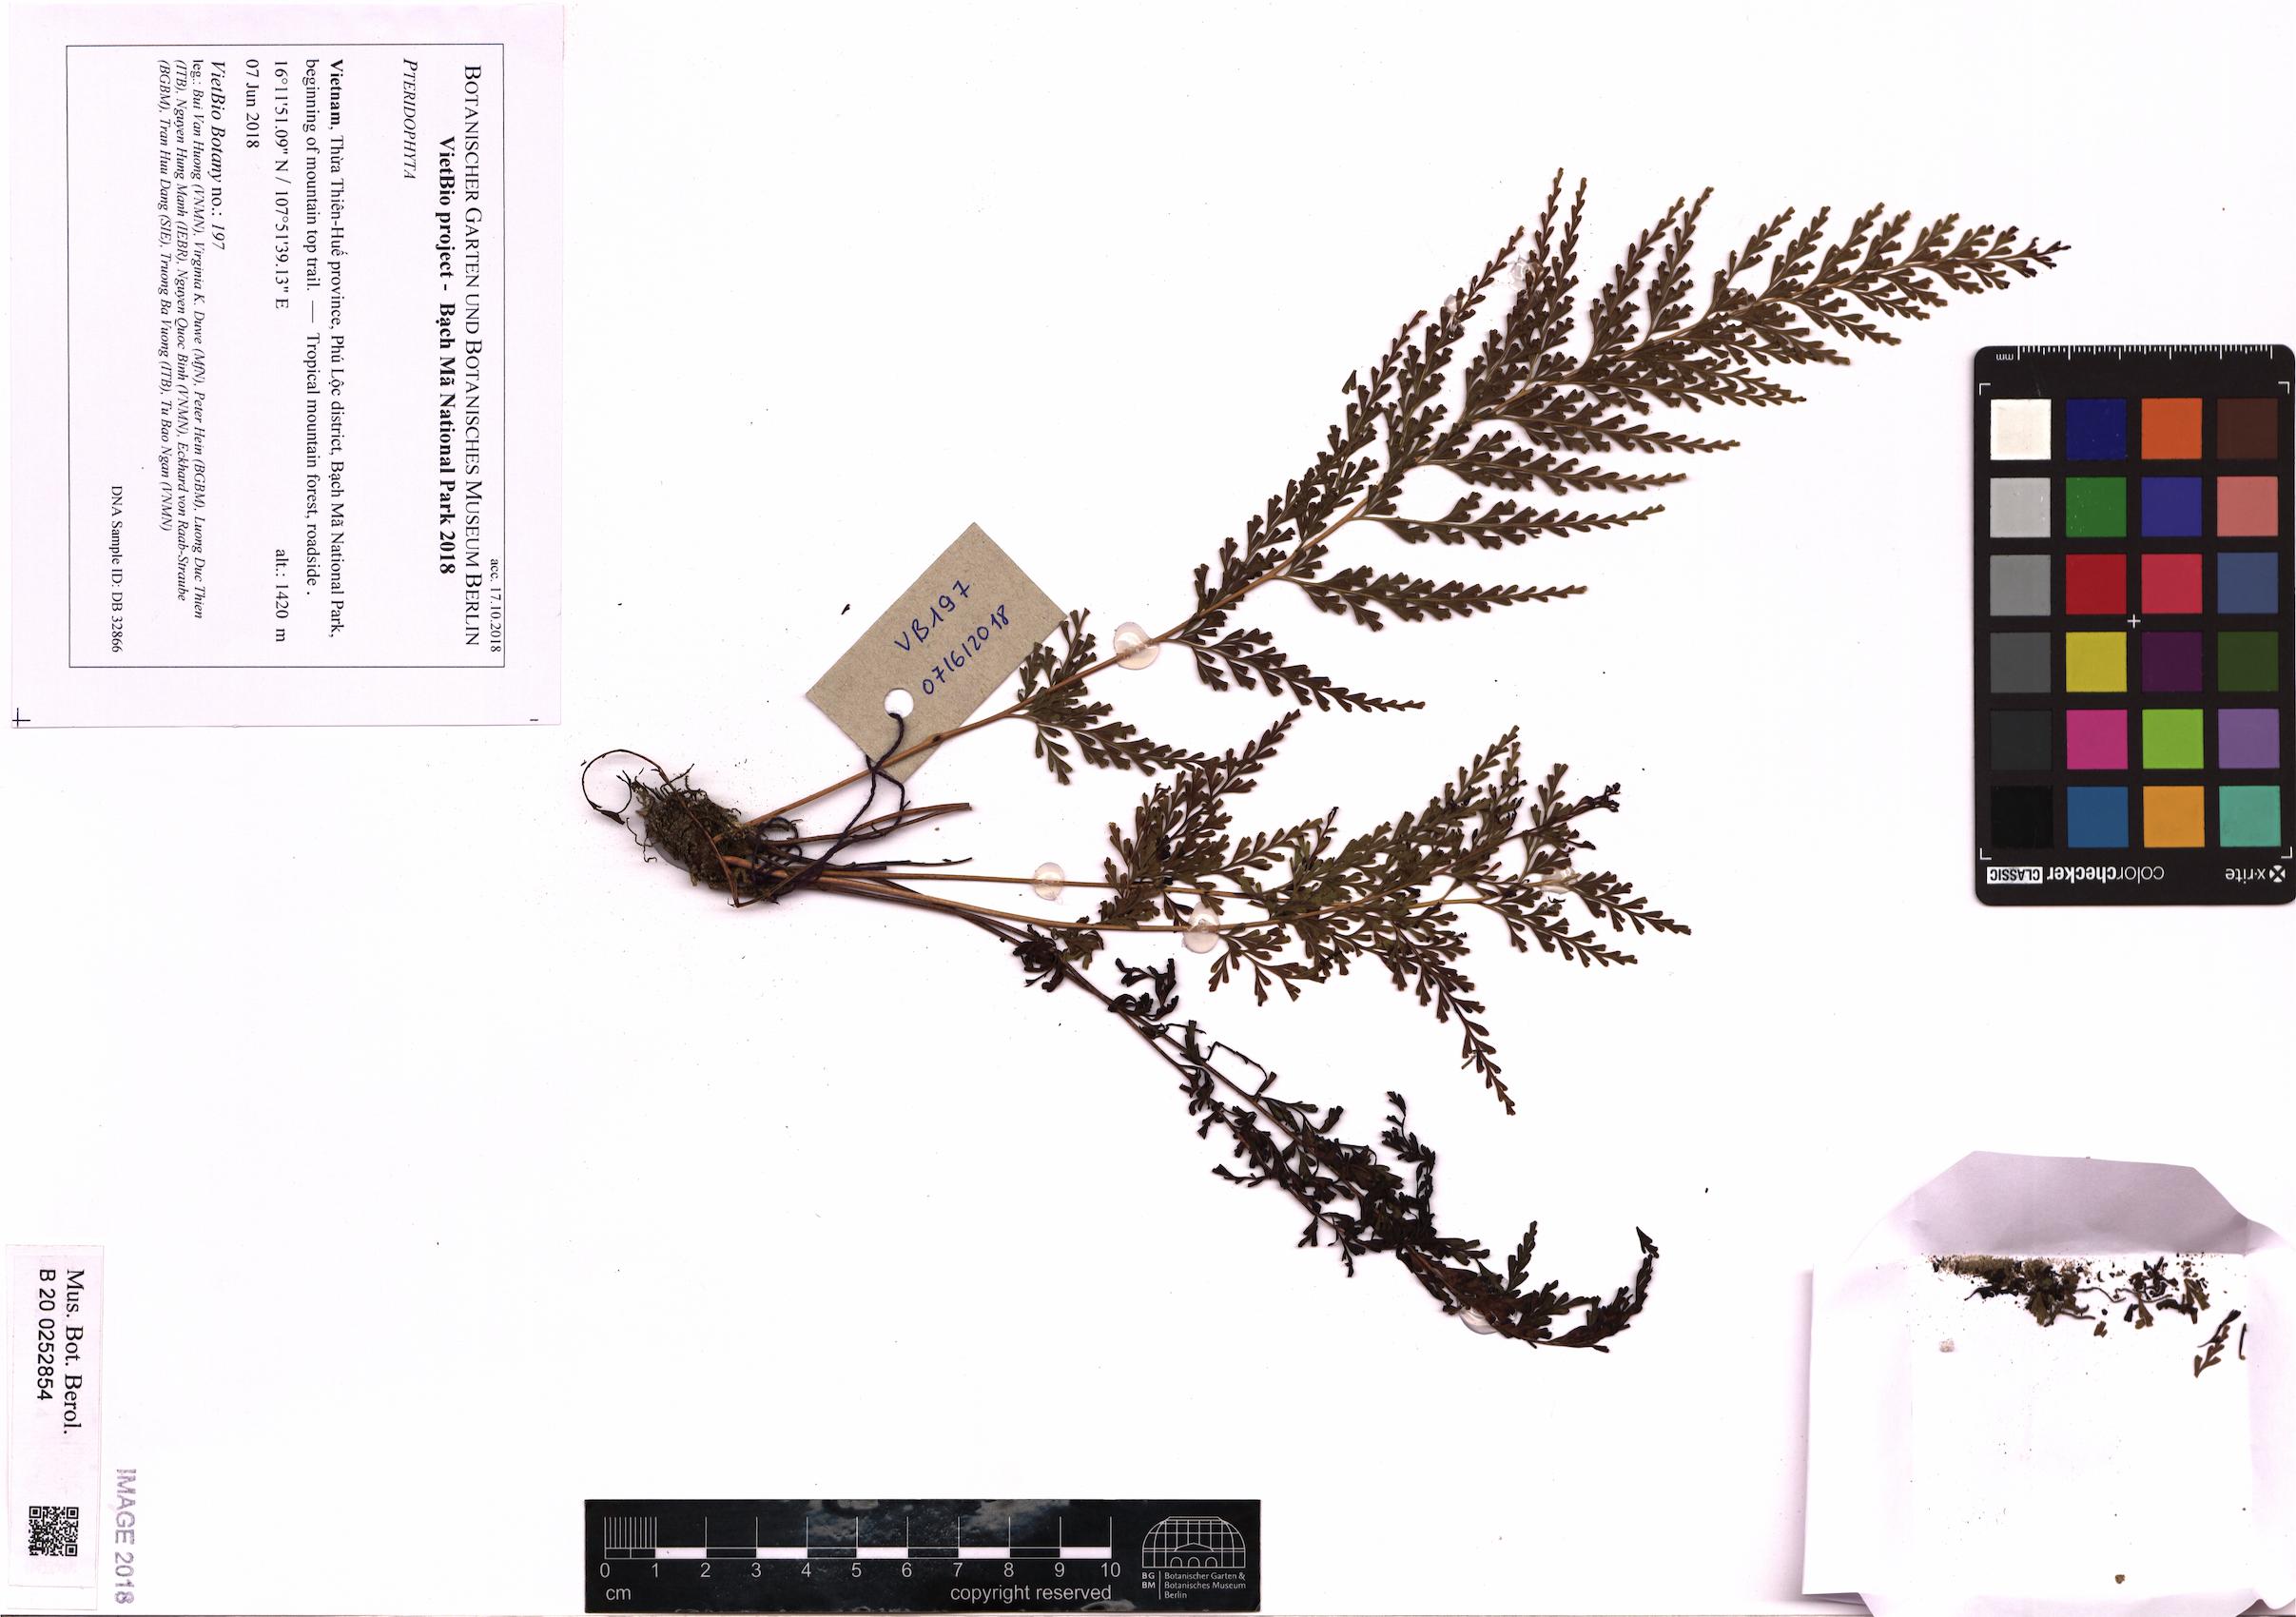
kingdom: Plantae
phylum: Tracheophyta
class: Polypodiopsida
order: Polypodiales
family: Lindsaeaceae
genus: Odontosoria
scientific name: Odontosoria chinensis
